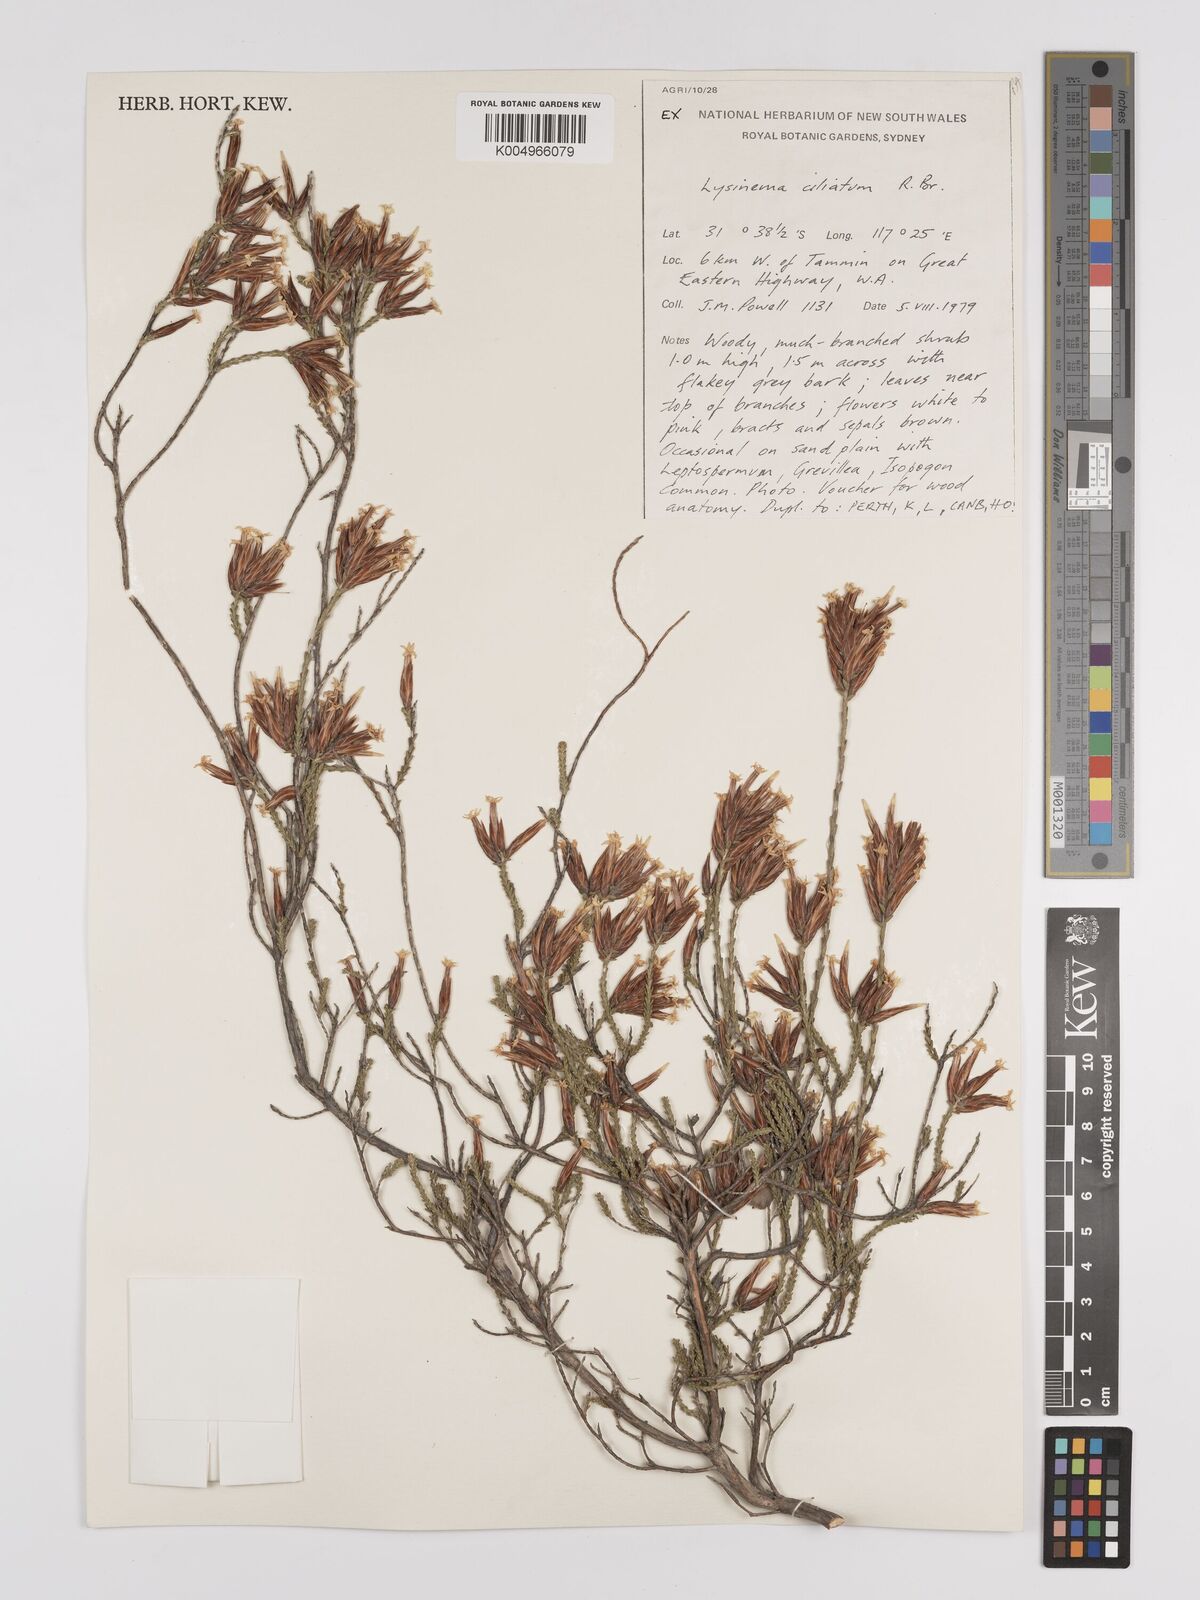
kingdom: Plantae
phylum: Tracheophyta
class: Magnoliopsida
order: Ericales
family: Ericaceae
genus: Lysinema
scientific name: Lysinema ciliatum
